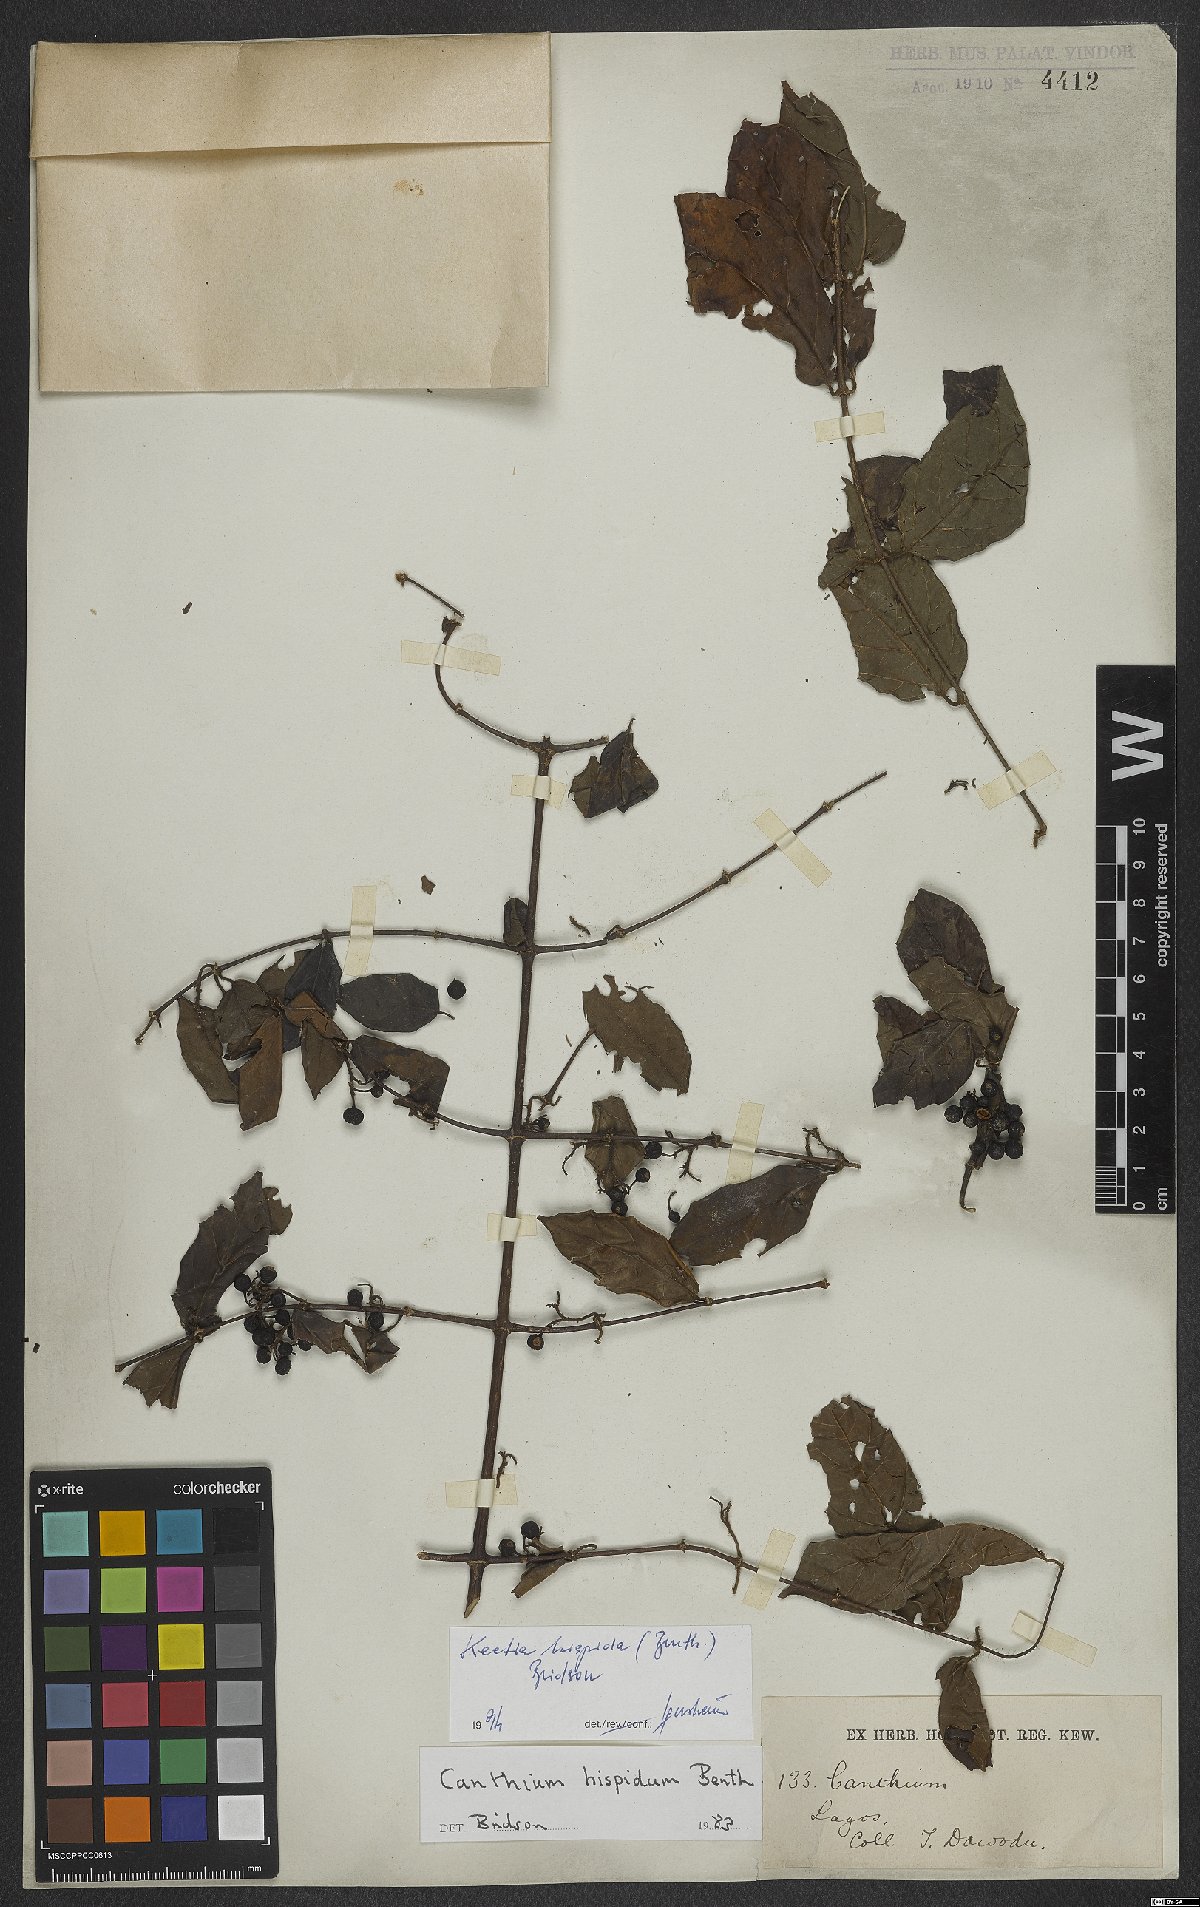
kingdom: Plantae
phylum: Tracheophyta
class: Magnoliopsida
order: Gentianales
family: Rubiaceae
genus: Keetia
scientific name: Keetia hispida
